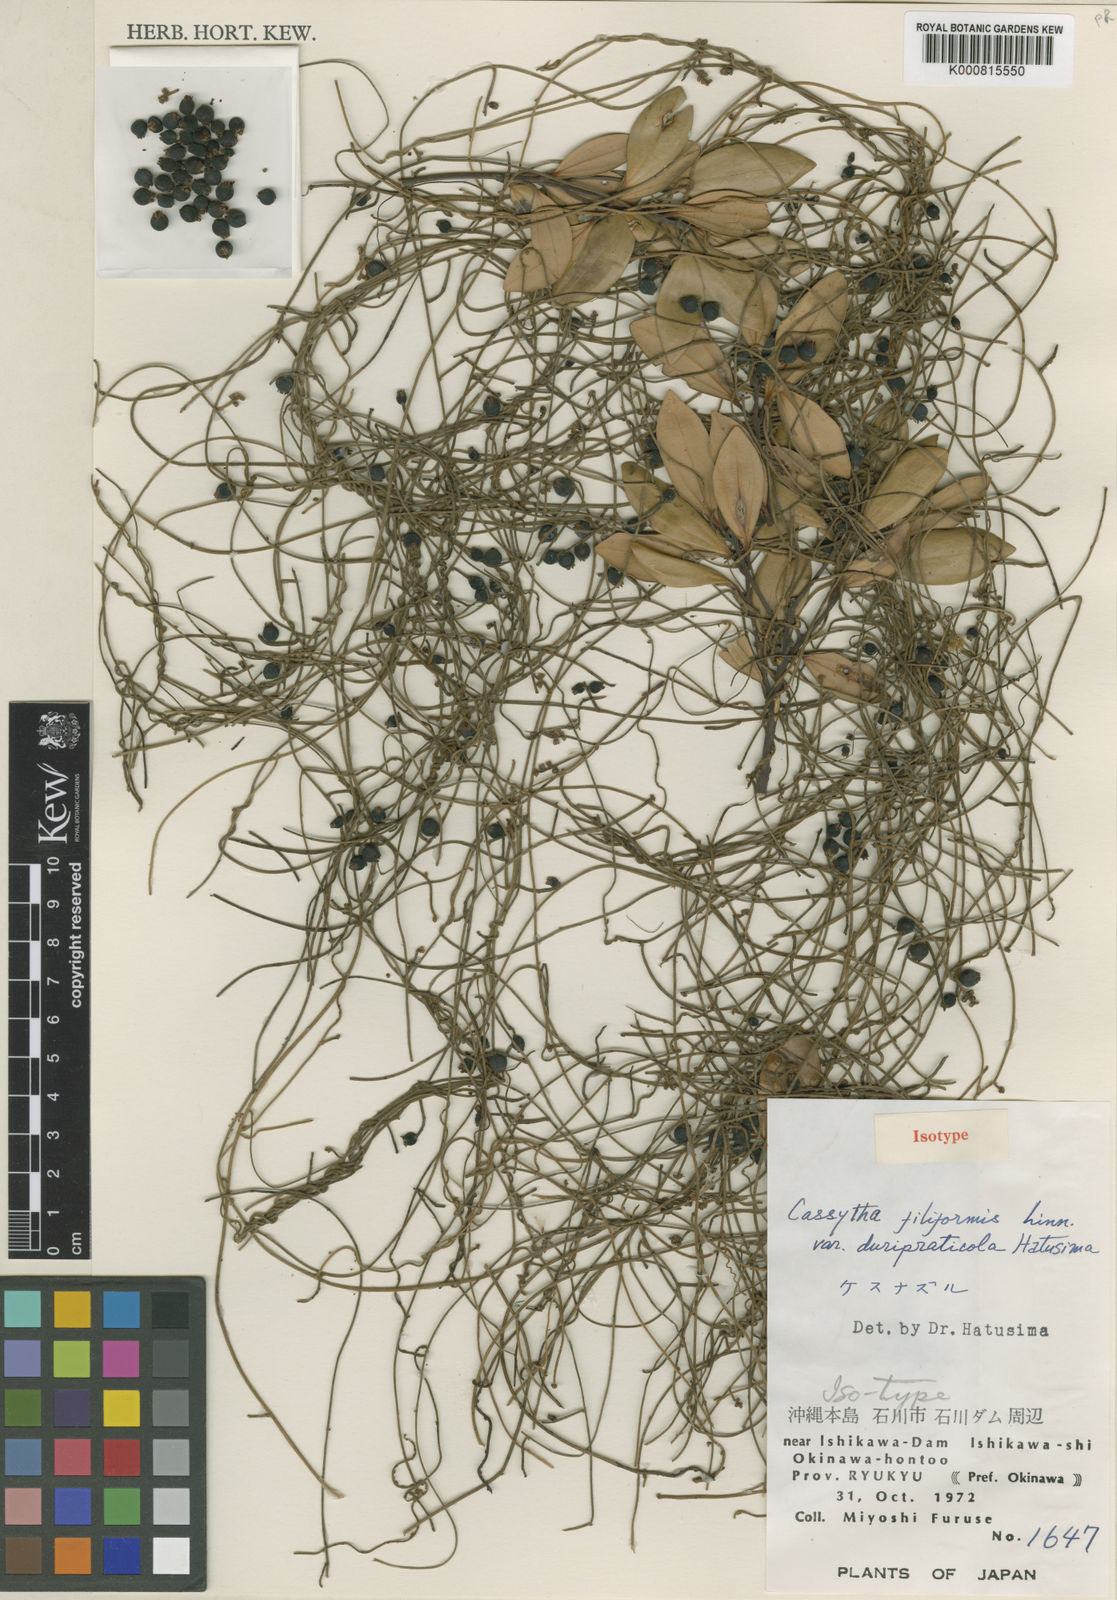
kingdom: Plantae
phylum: Tracheophyta
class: Magnoliopsida
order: Laurales
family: Lauraceae
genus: Cassytha
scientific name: Cassytha filiformis
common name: Dodder-laurel
